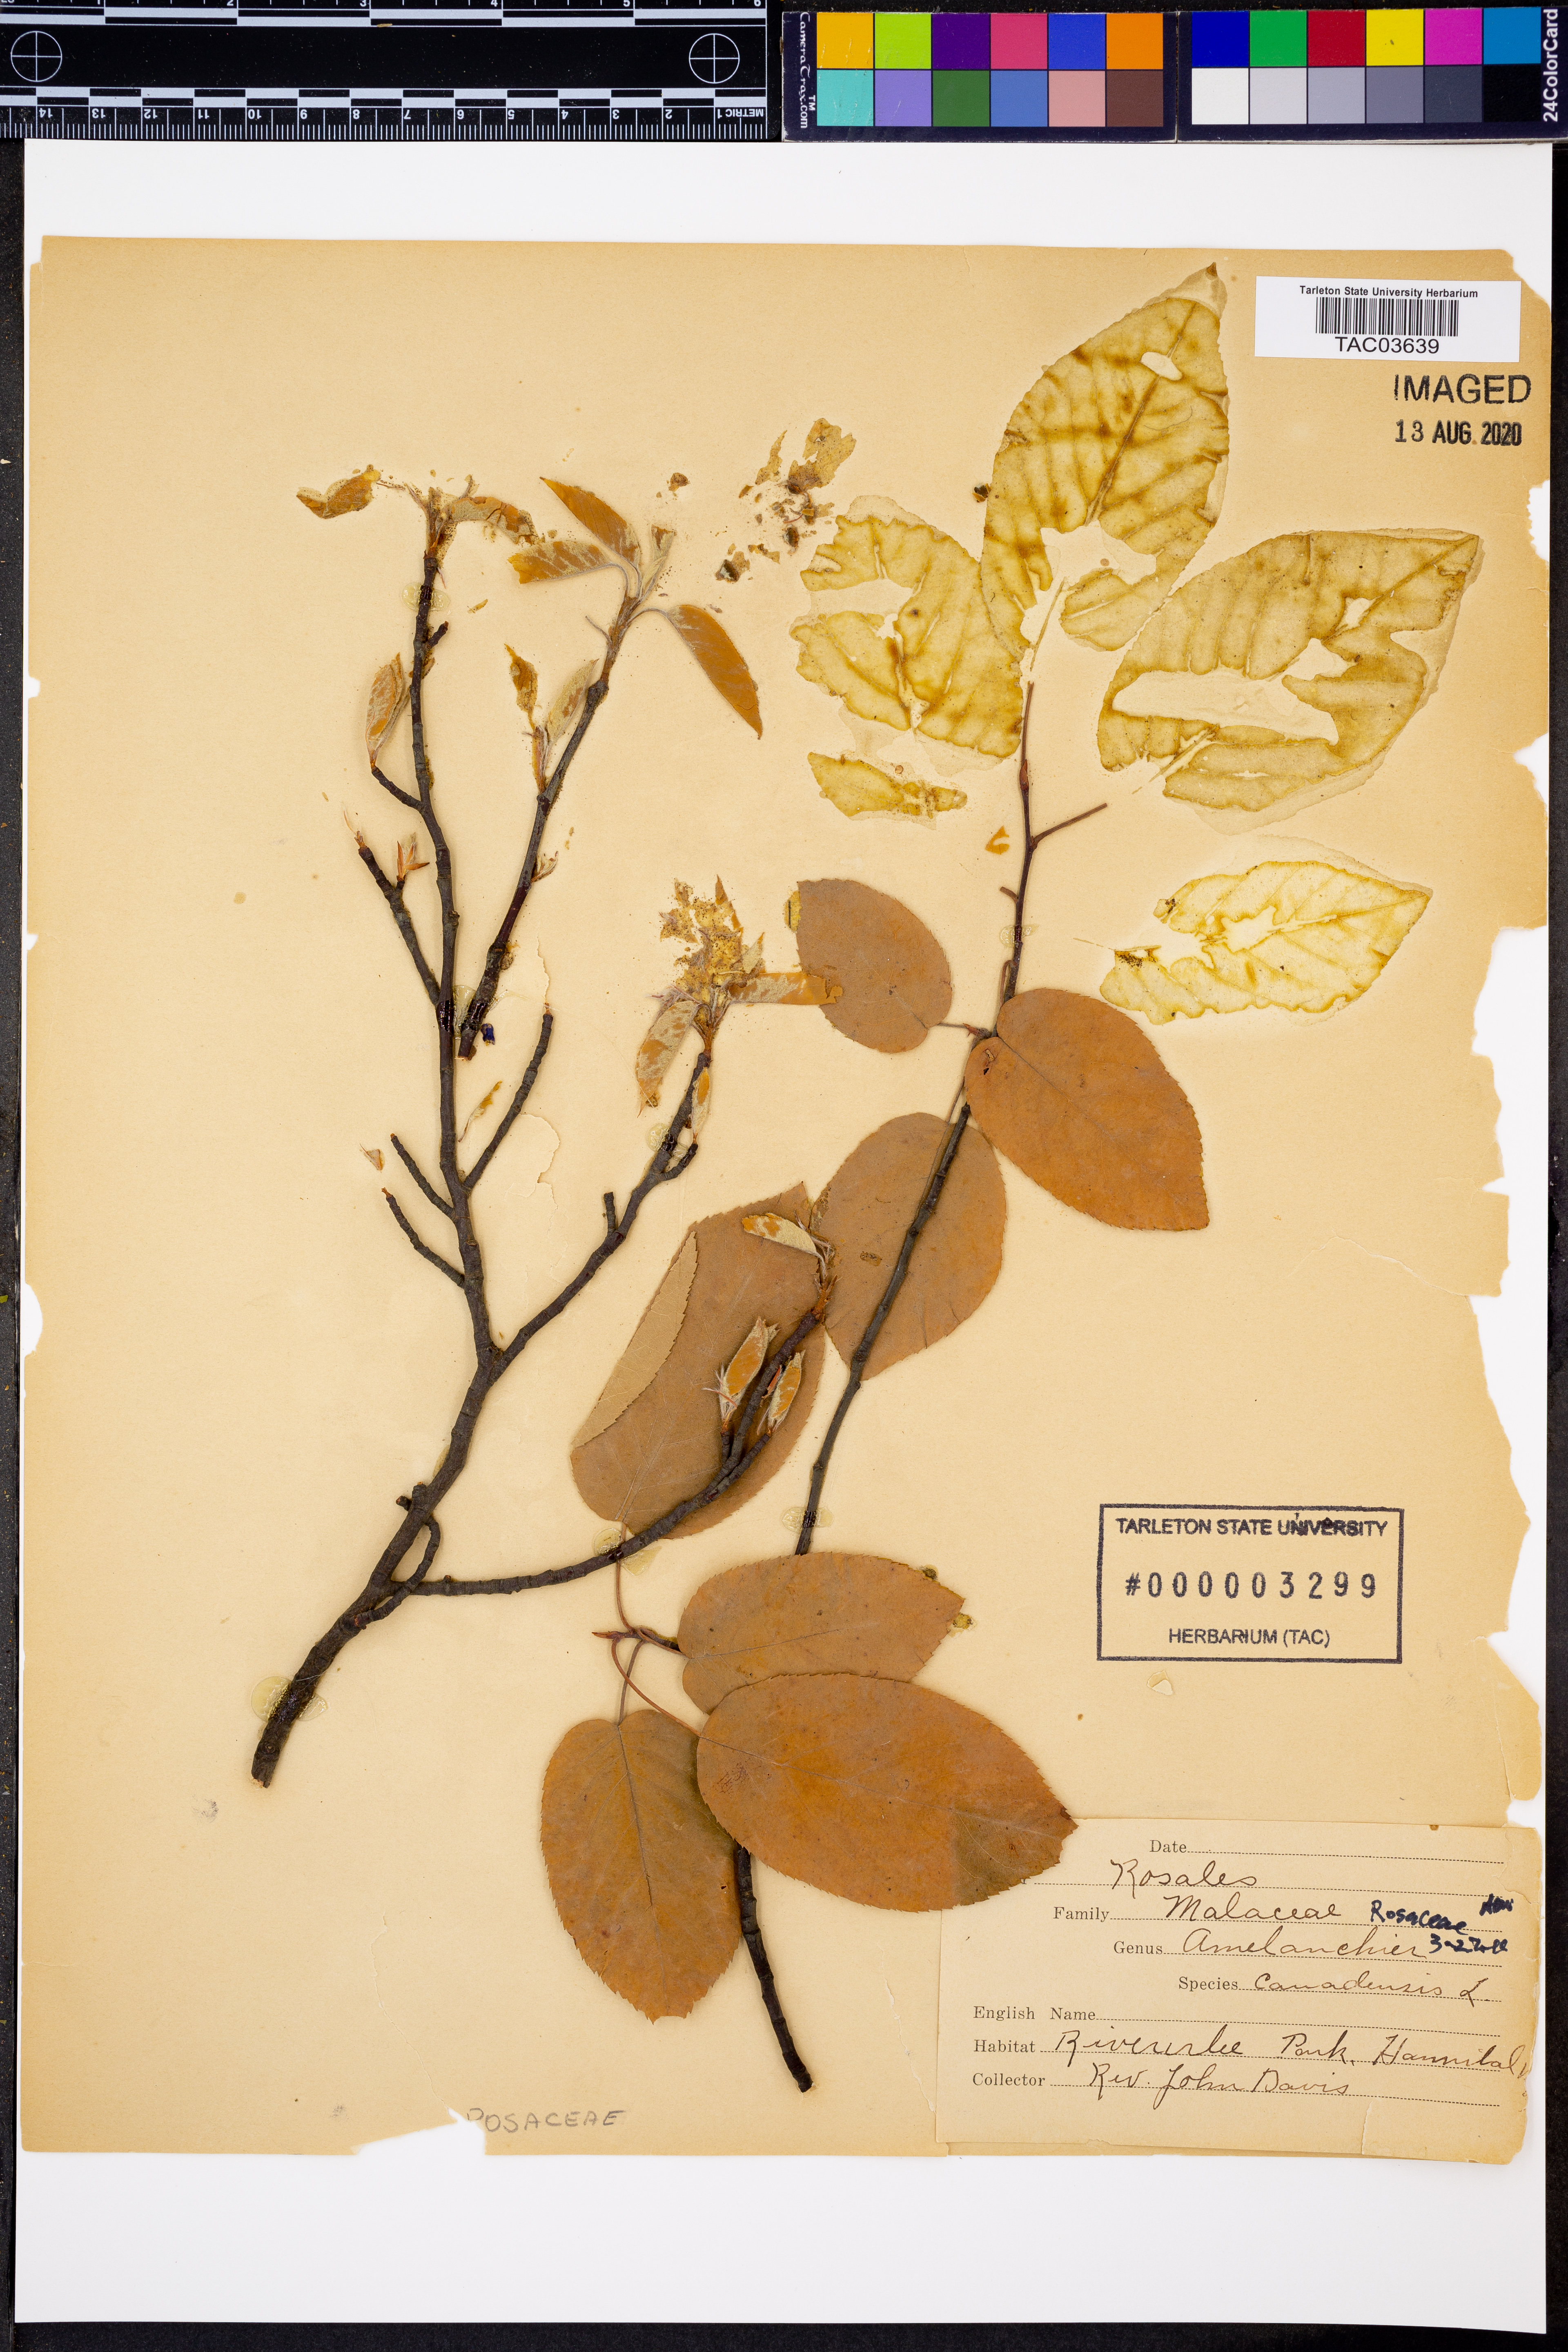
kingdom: Plantae
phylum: Tracheophyta
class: Magnoliopsida
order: Rosales
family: Rosaceae
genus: Amelanchier
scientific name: Amelanchier canadensis
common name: Thicket serviceberry
